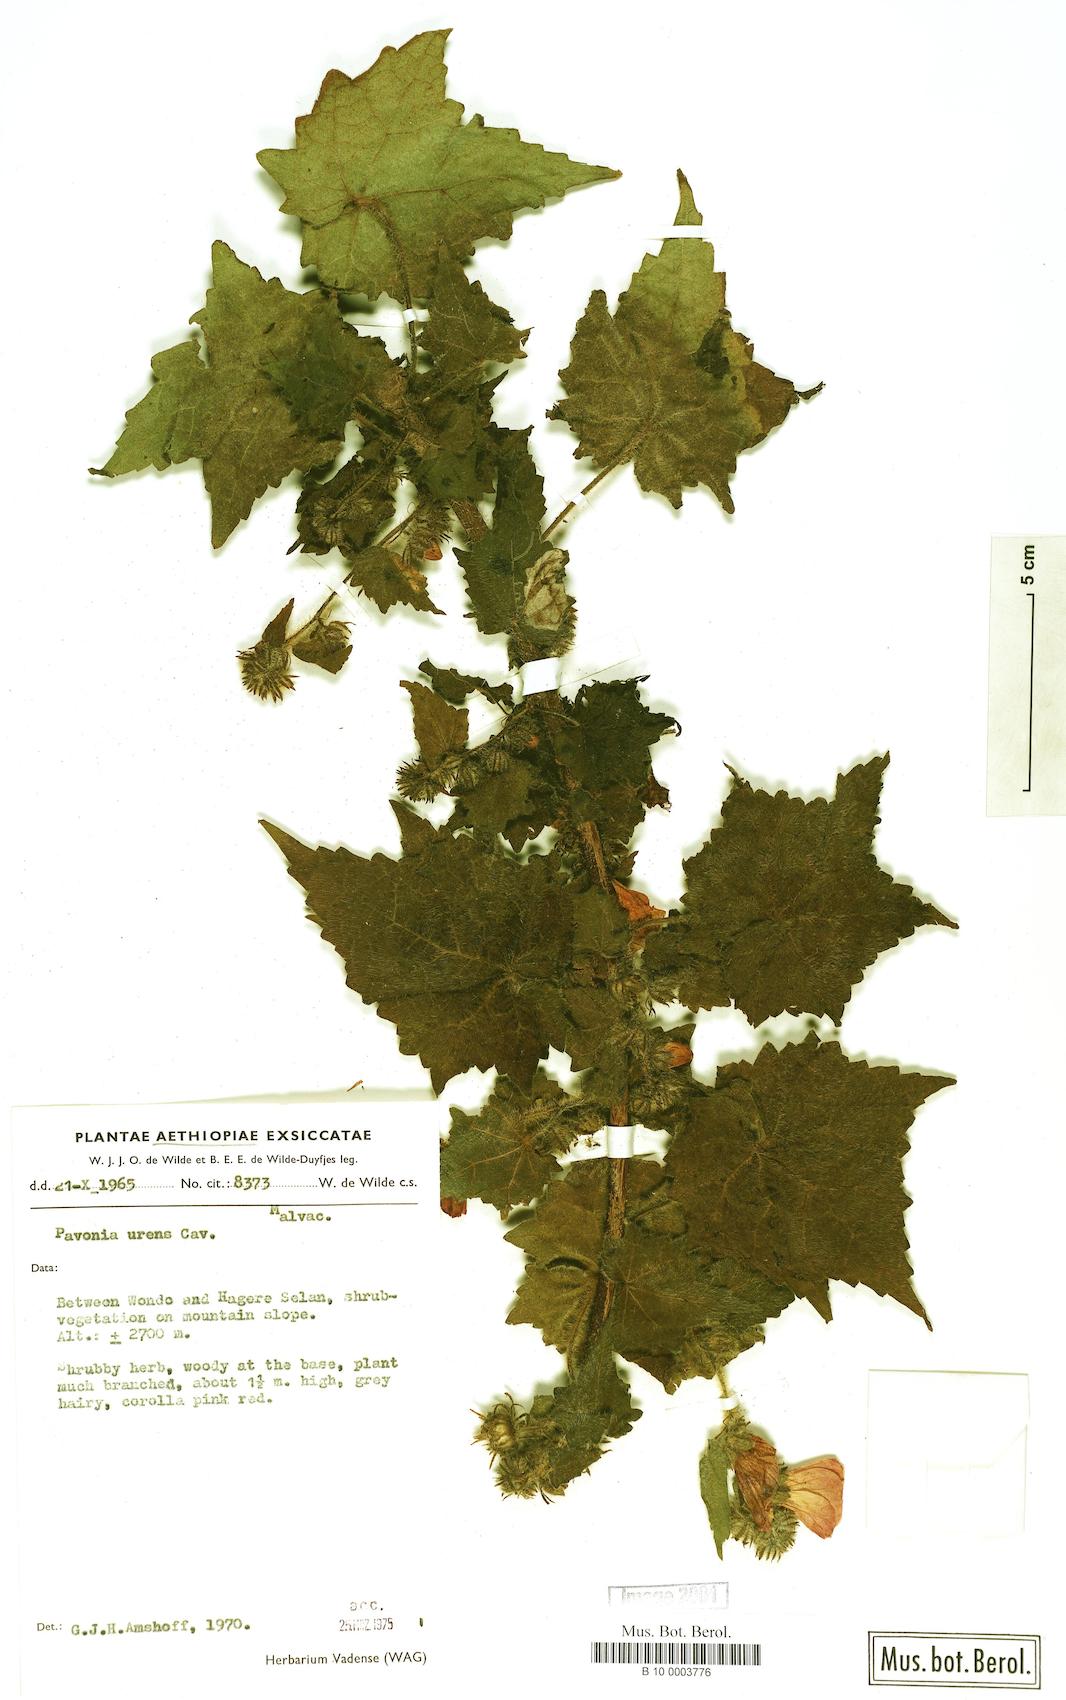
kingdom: Plantae
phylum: Tracheophyta
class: Magnoliopsida
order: Malvales
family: Malvaceae
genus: Pavonia
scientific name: Pavonia urens
